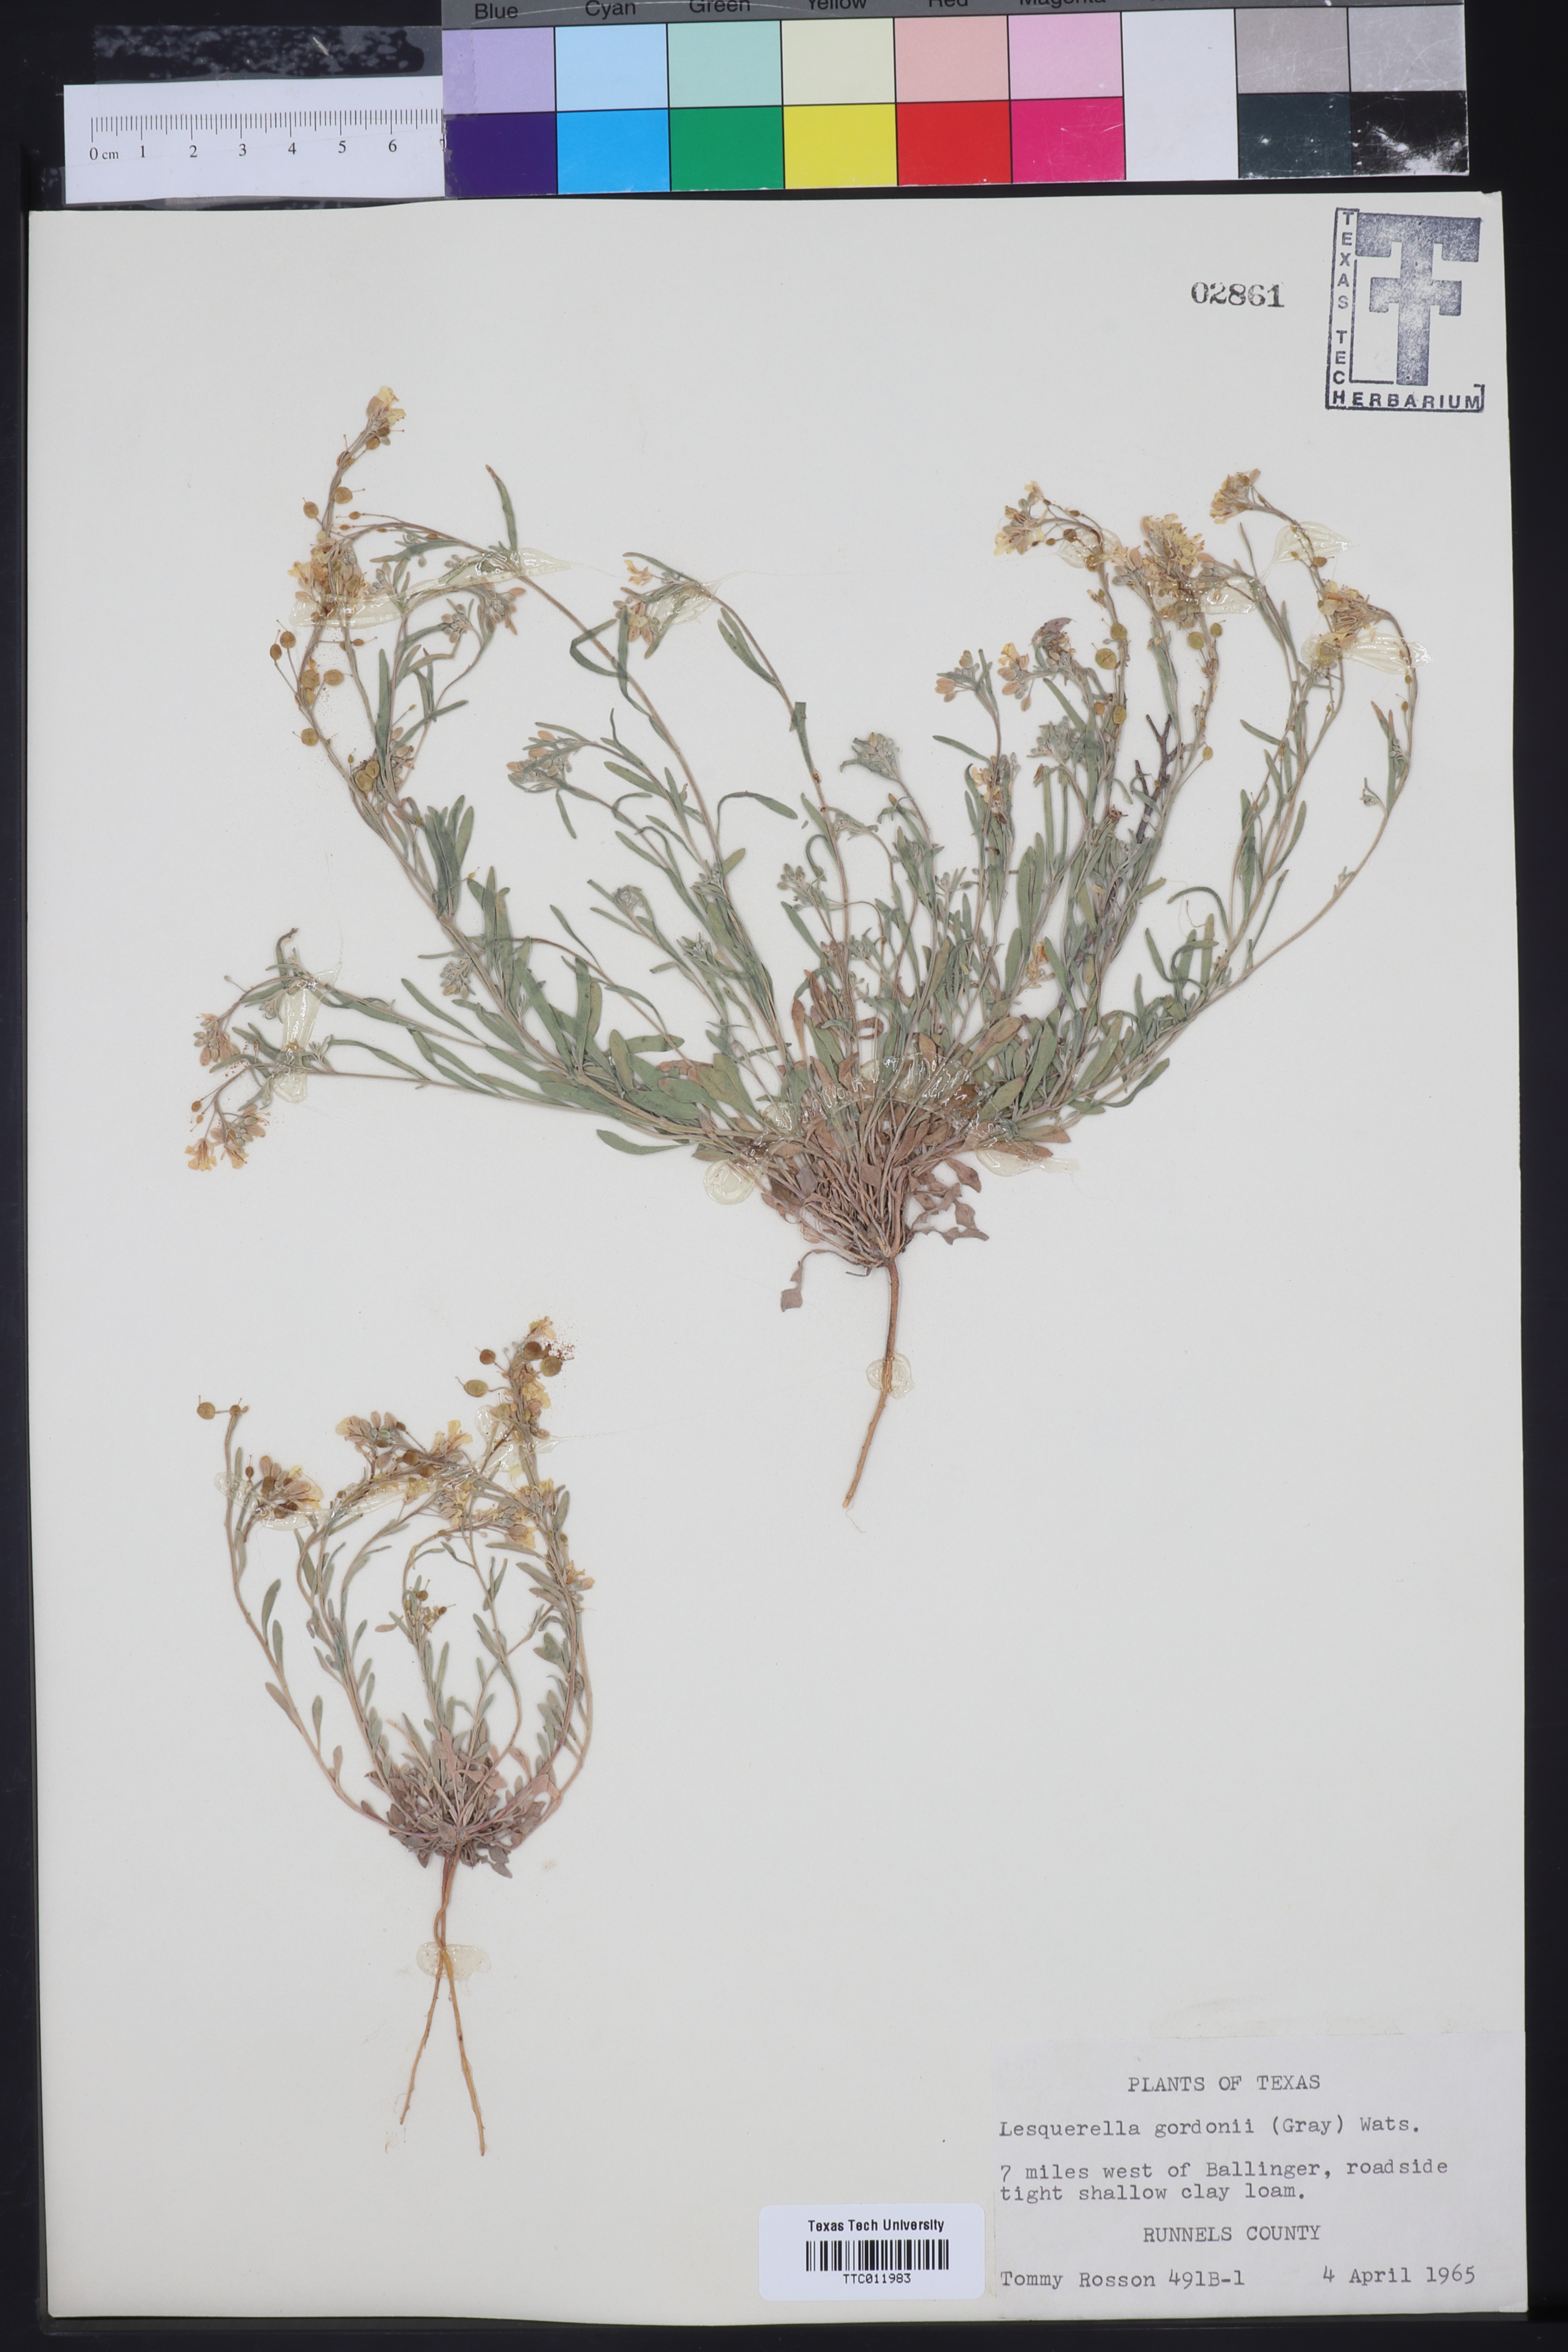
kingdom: Plantae
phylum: Tracheophyta
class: Magnoliopsida
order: Brassicales
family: Brassicaceae
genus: Physaria
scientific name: Physaria gordonii
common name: Gordon's bladderpod
